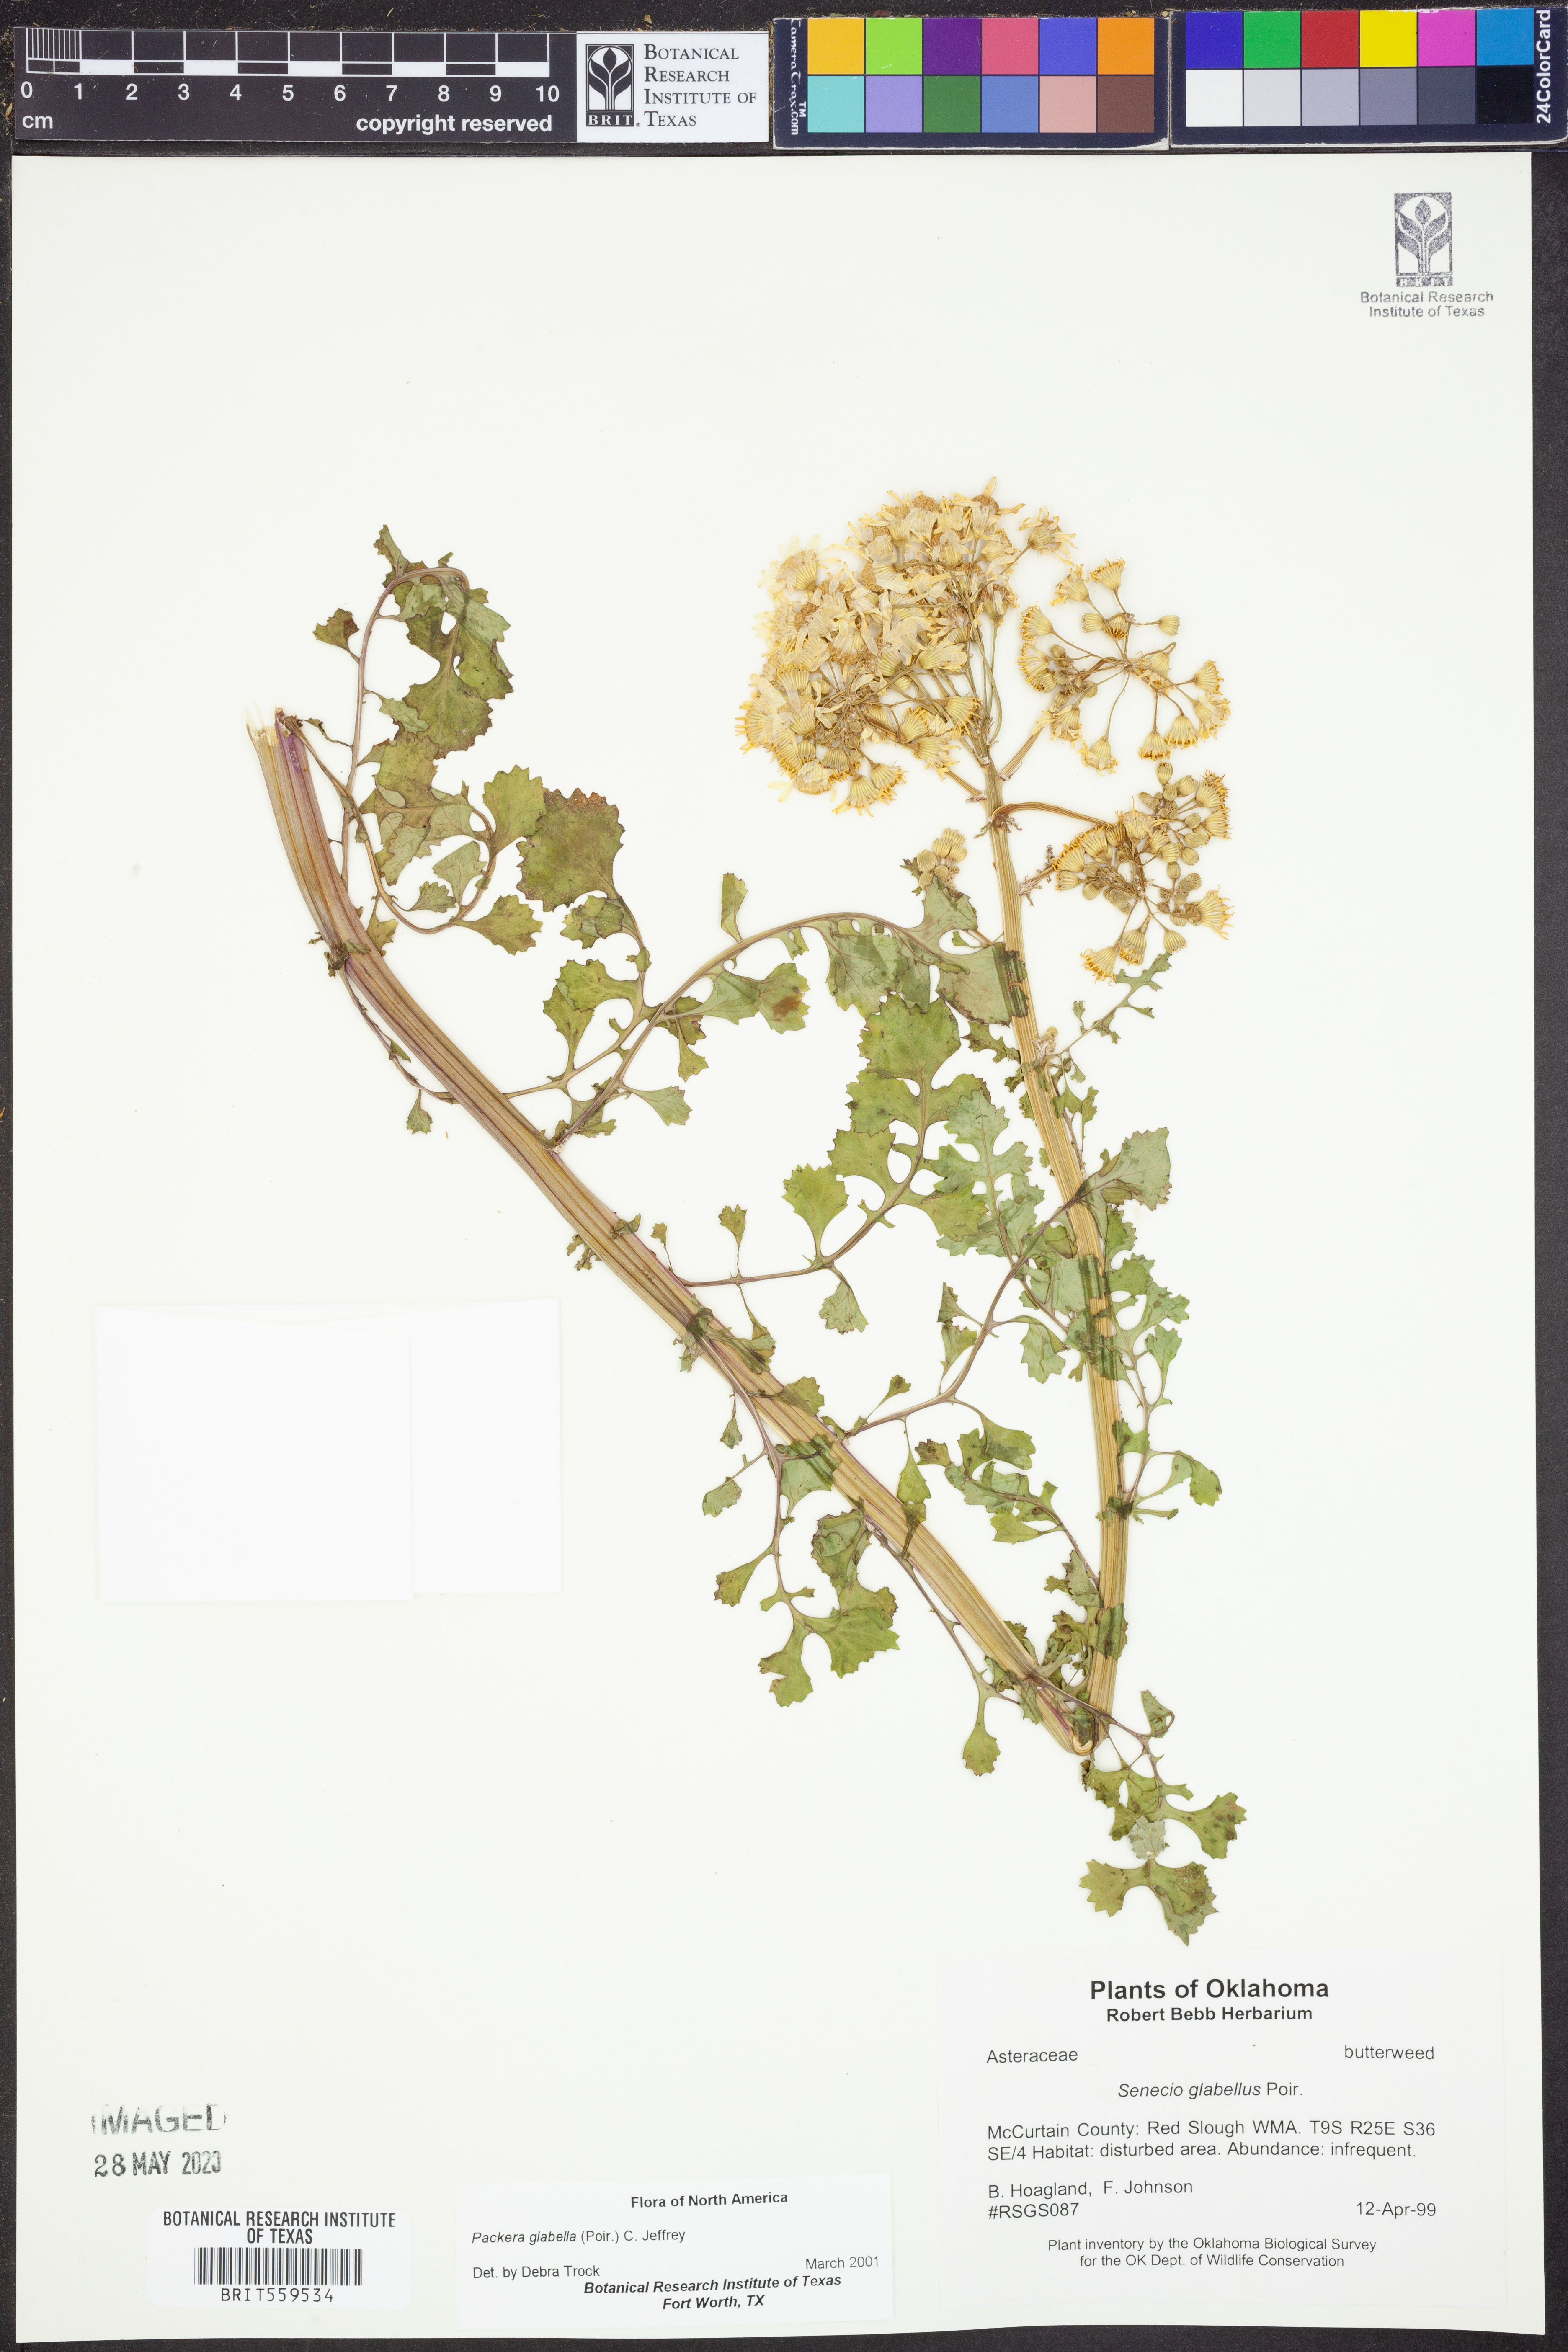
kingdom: Plantae
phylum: Tracheophyta
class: Magnoliopsida
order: Asterales
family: Asteraceae
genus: Packera
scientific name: Packera glabella
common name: Butterweed
